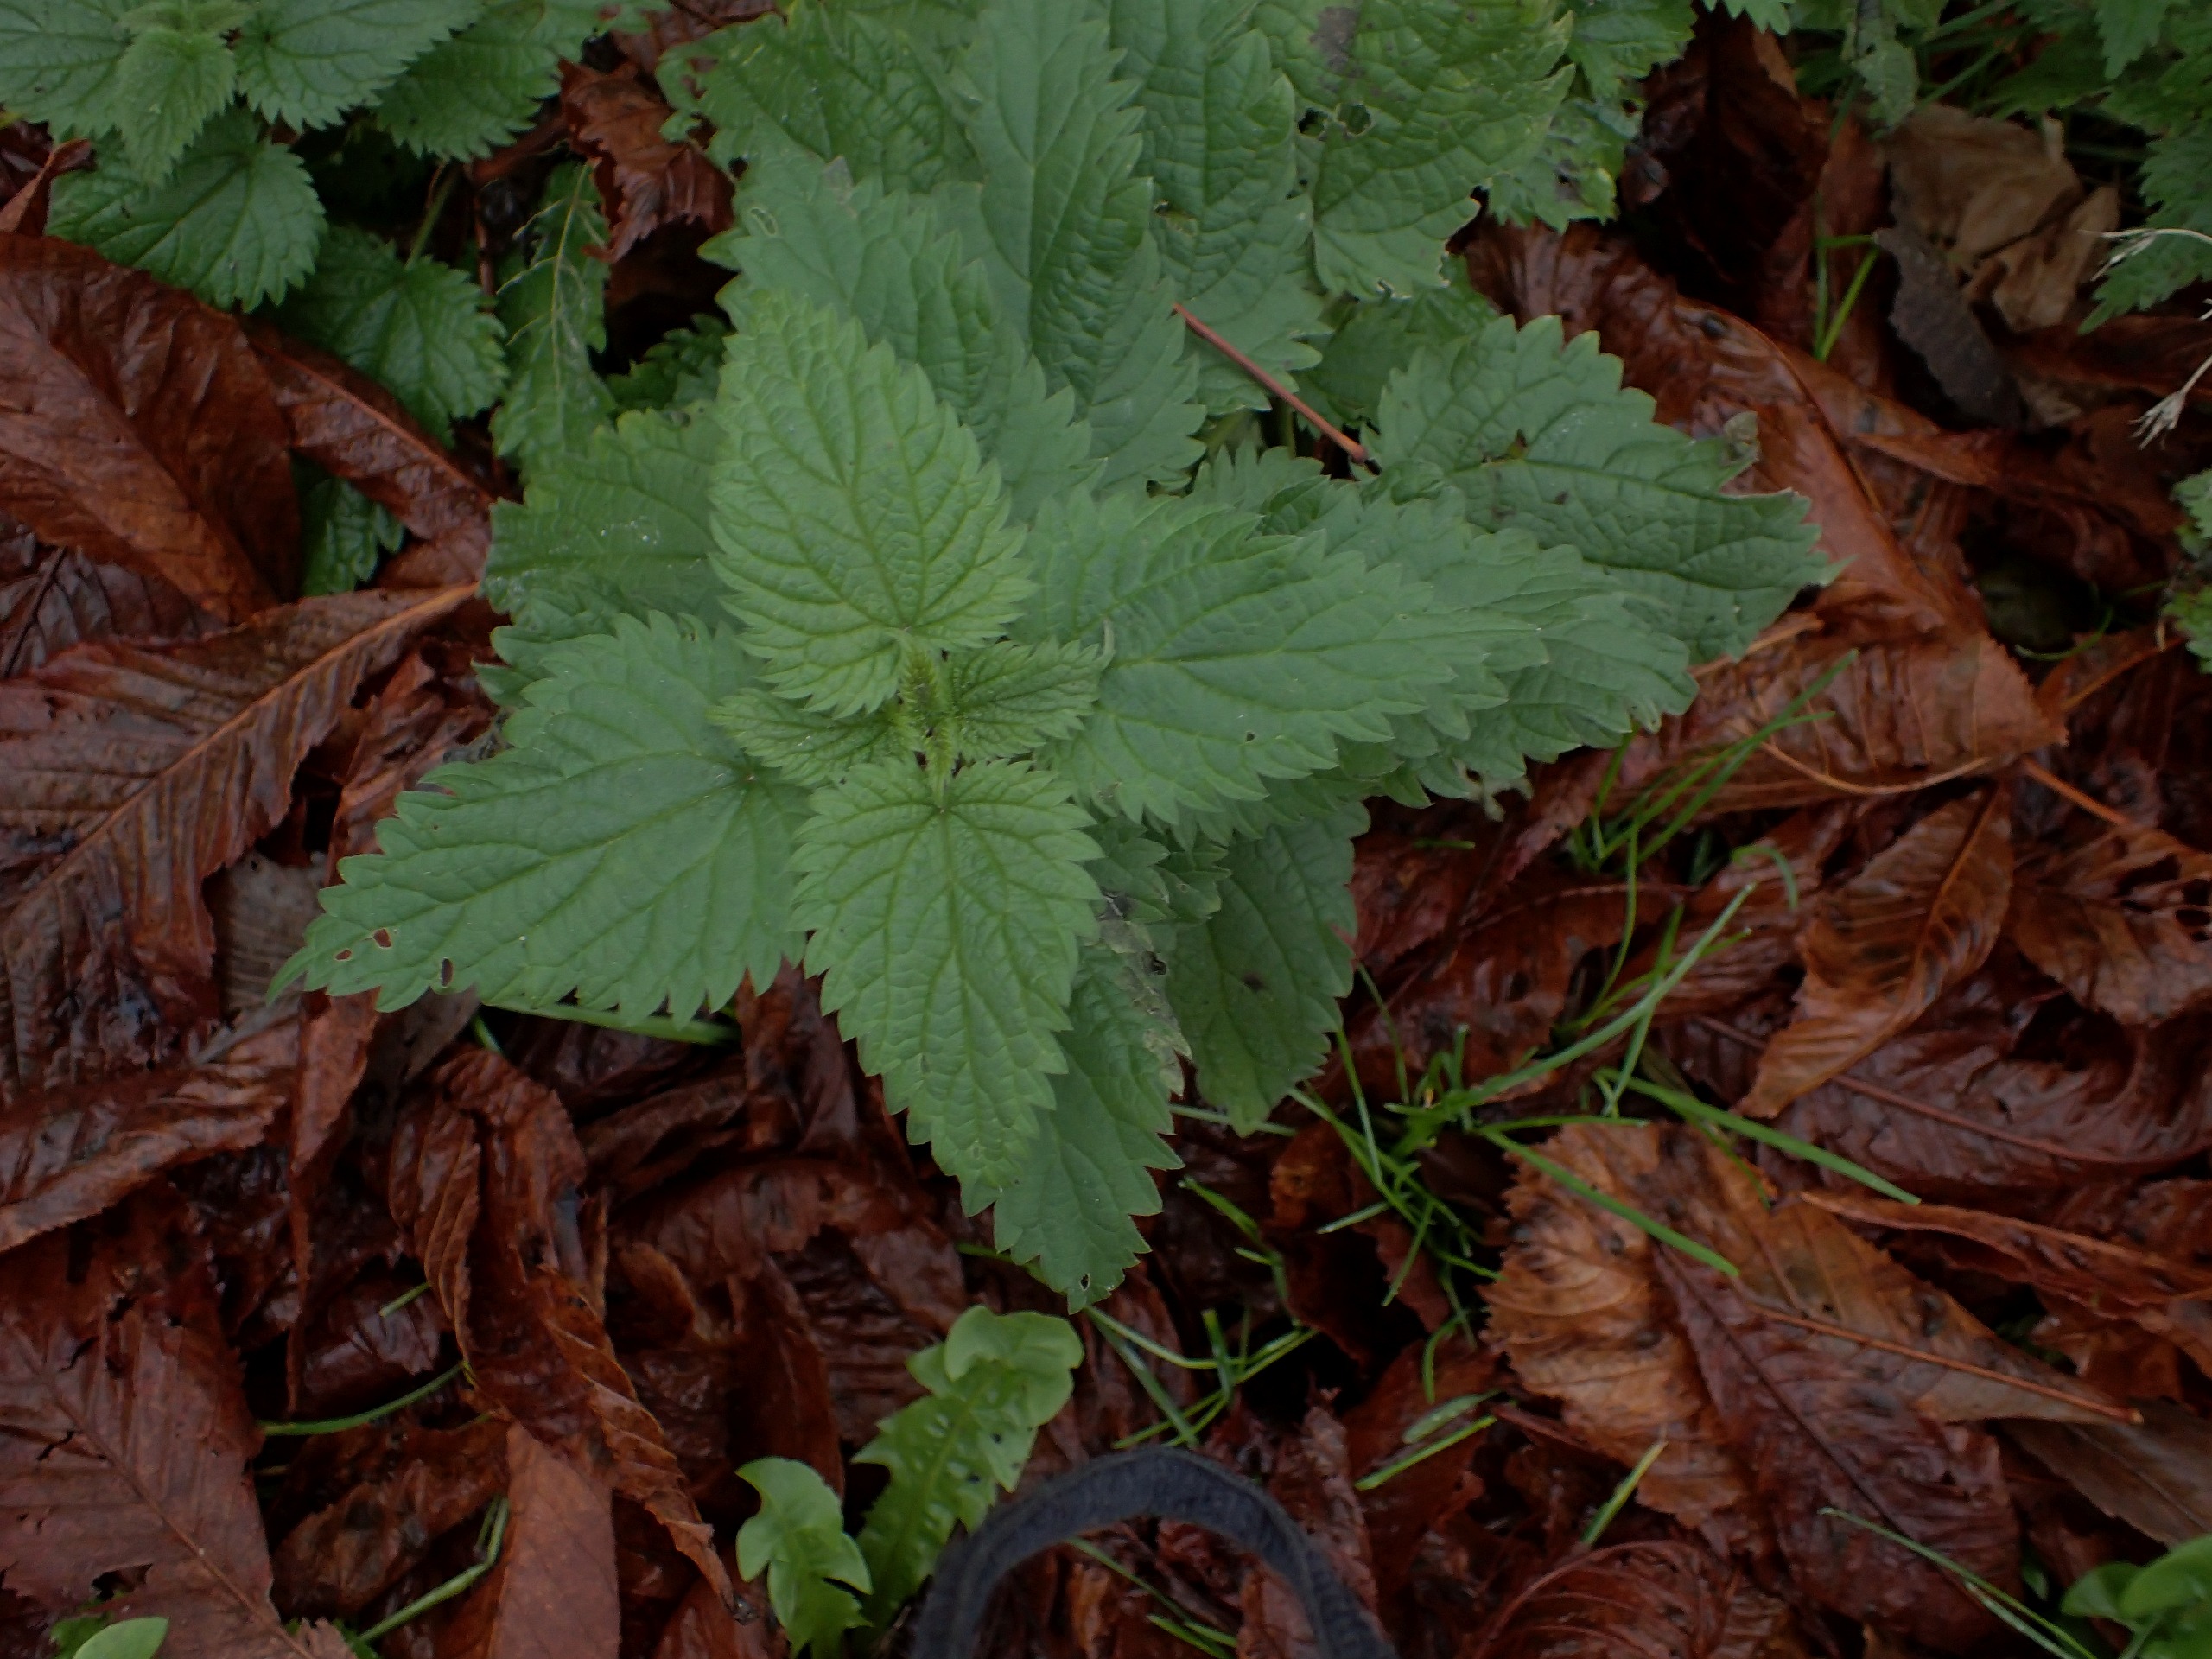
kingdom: Plantae
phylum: Tracheophyta
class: Magnoliopsida
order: Rosales
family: Urticaceae
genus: Urtica
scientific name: Urtica dioica
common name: Stor nælde
